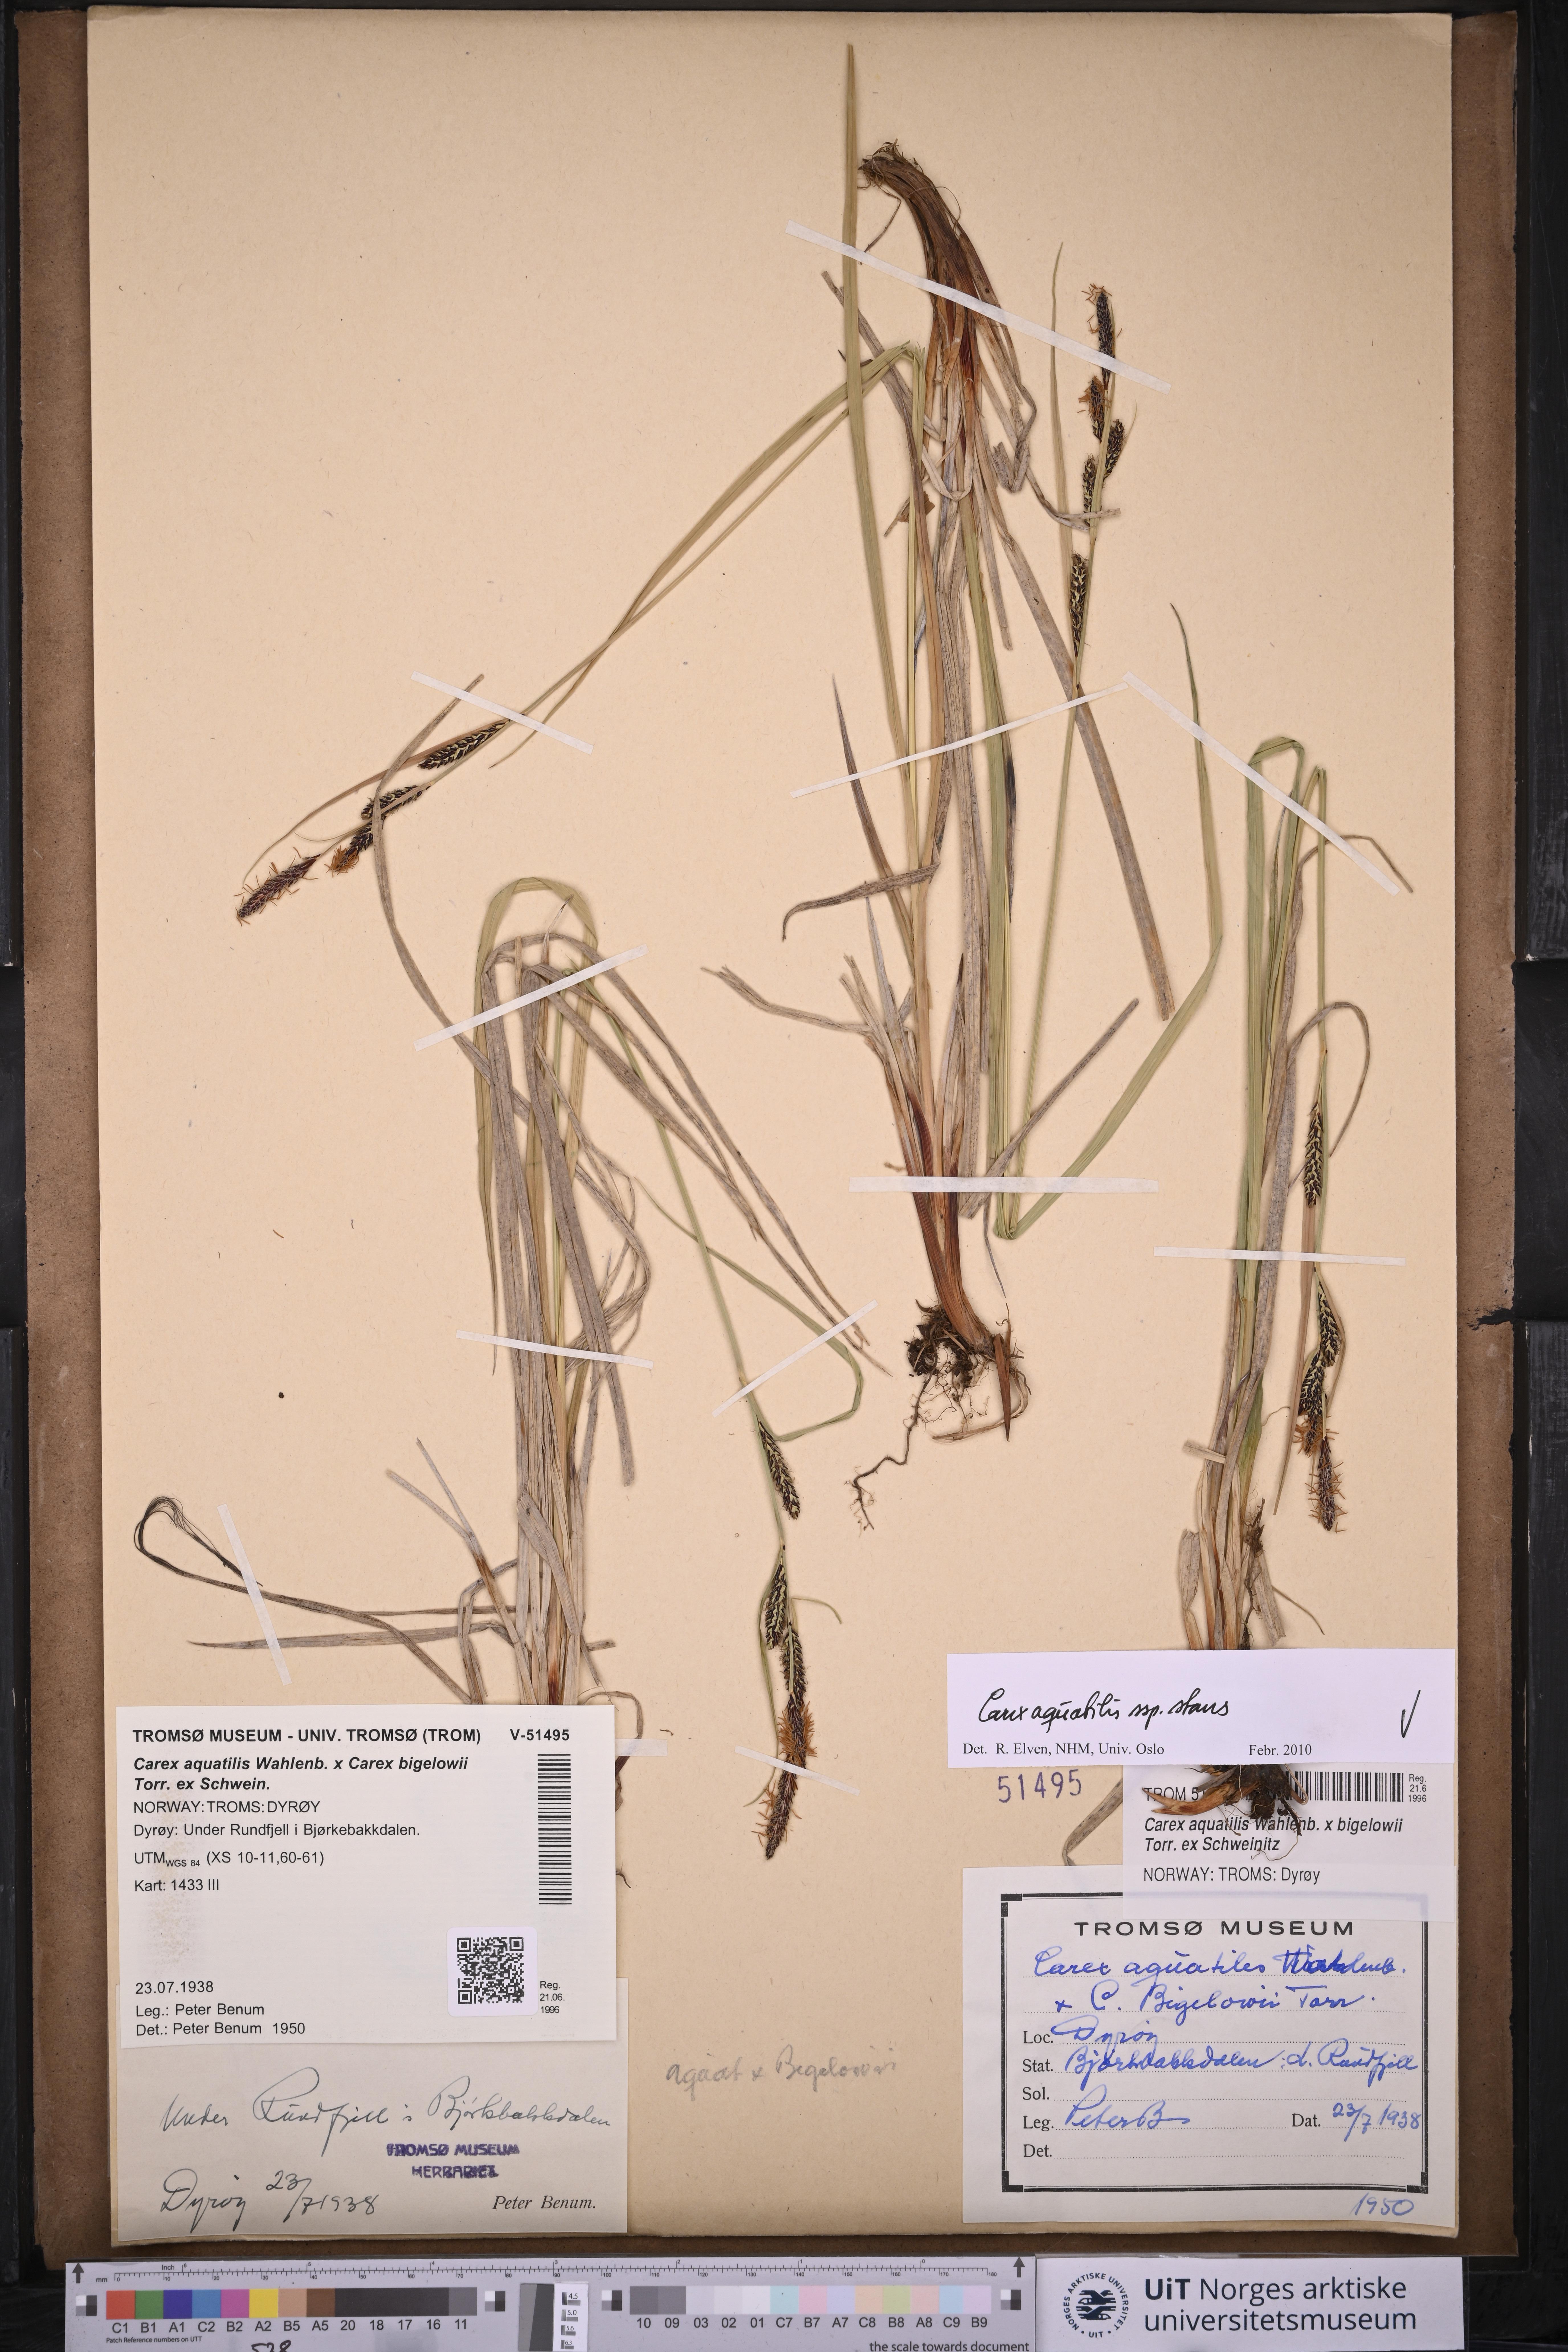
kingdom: Plantae
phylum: Tracheophyta
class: Liliopsida
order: Poales
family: Cyperaceae
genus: Carex
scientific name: Carex aquatilis
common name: Water sedge
